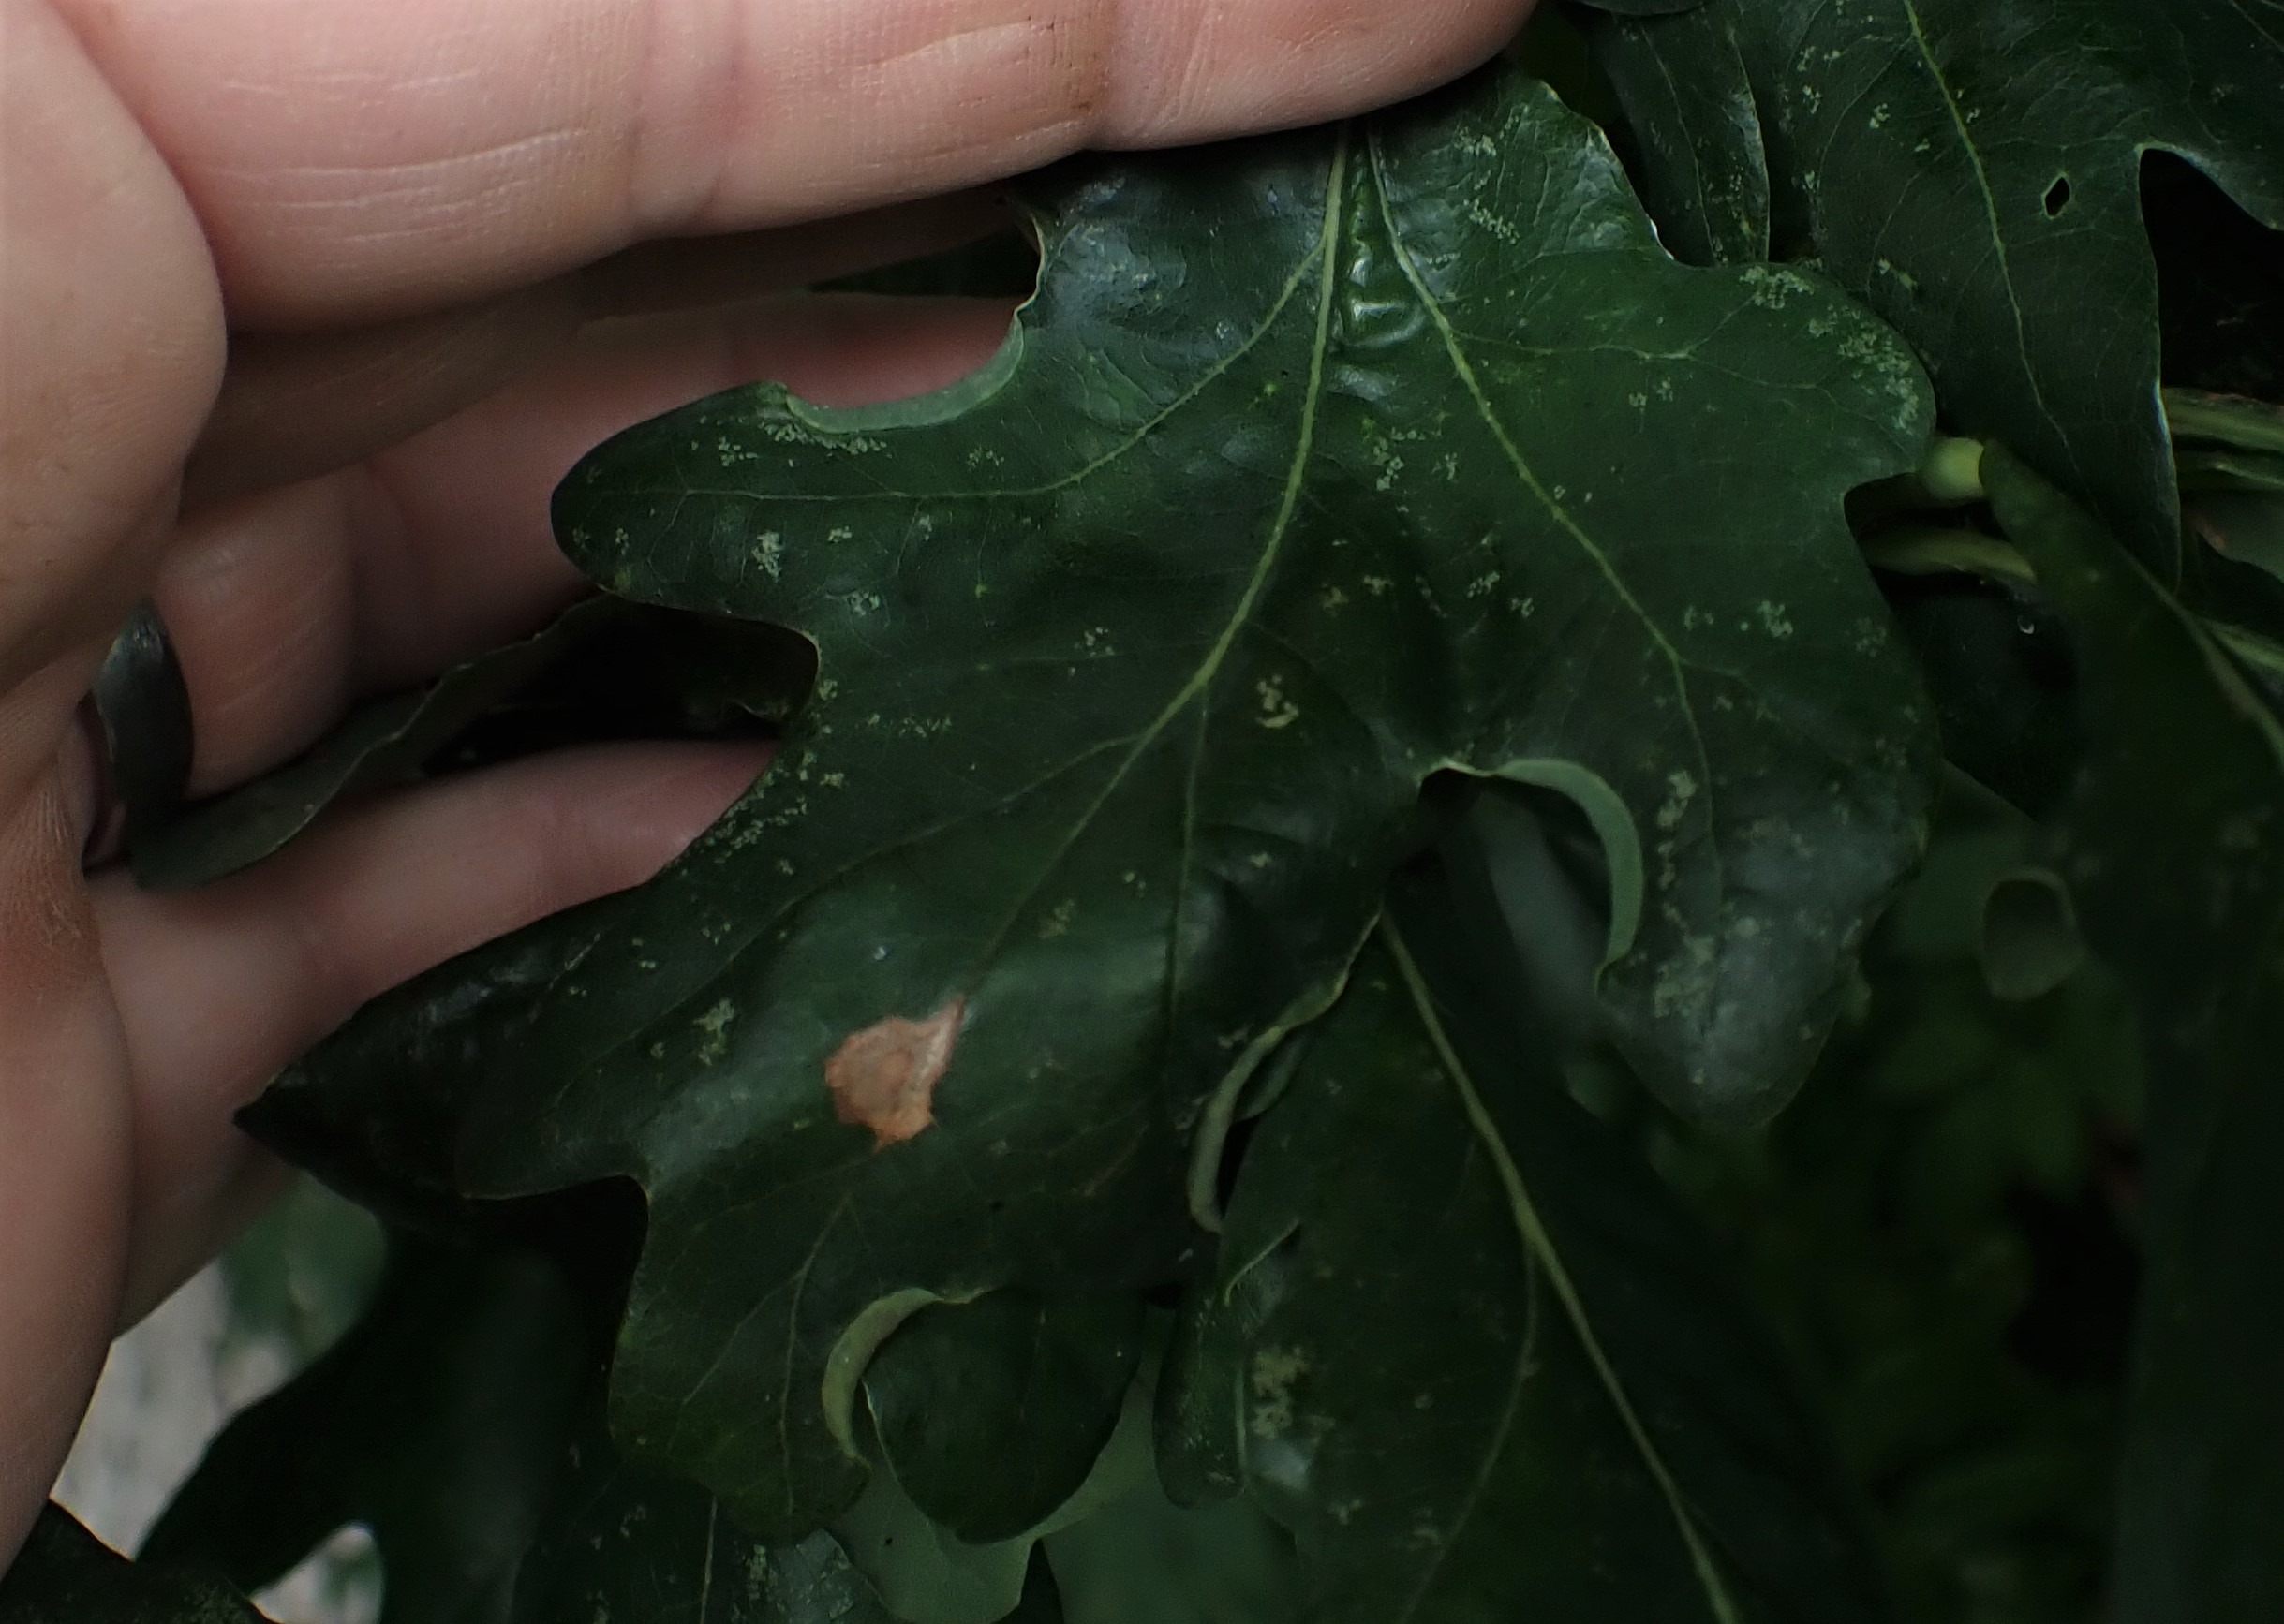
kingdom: Animalia
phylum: Arthropoda
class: Insecta
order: Diptera
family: Cecidomyiidae
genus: Macrodiplosis
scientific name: Macrodiplosis volvens
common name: Egerullegalmyg
